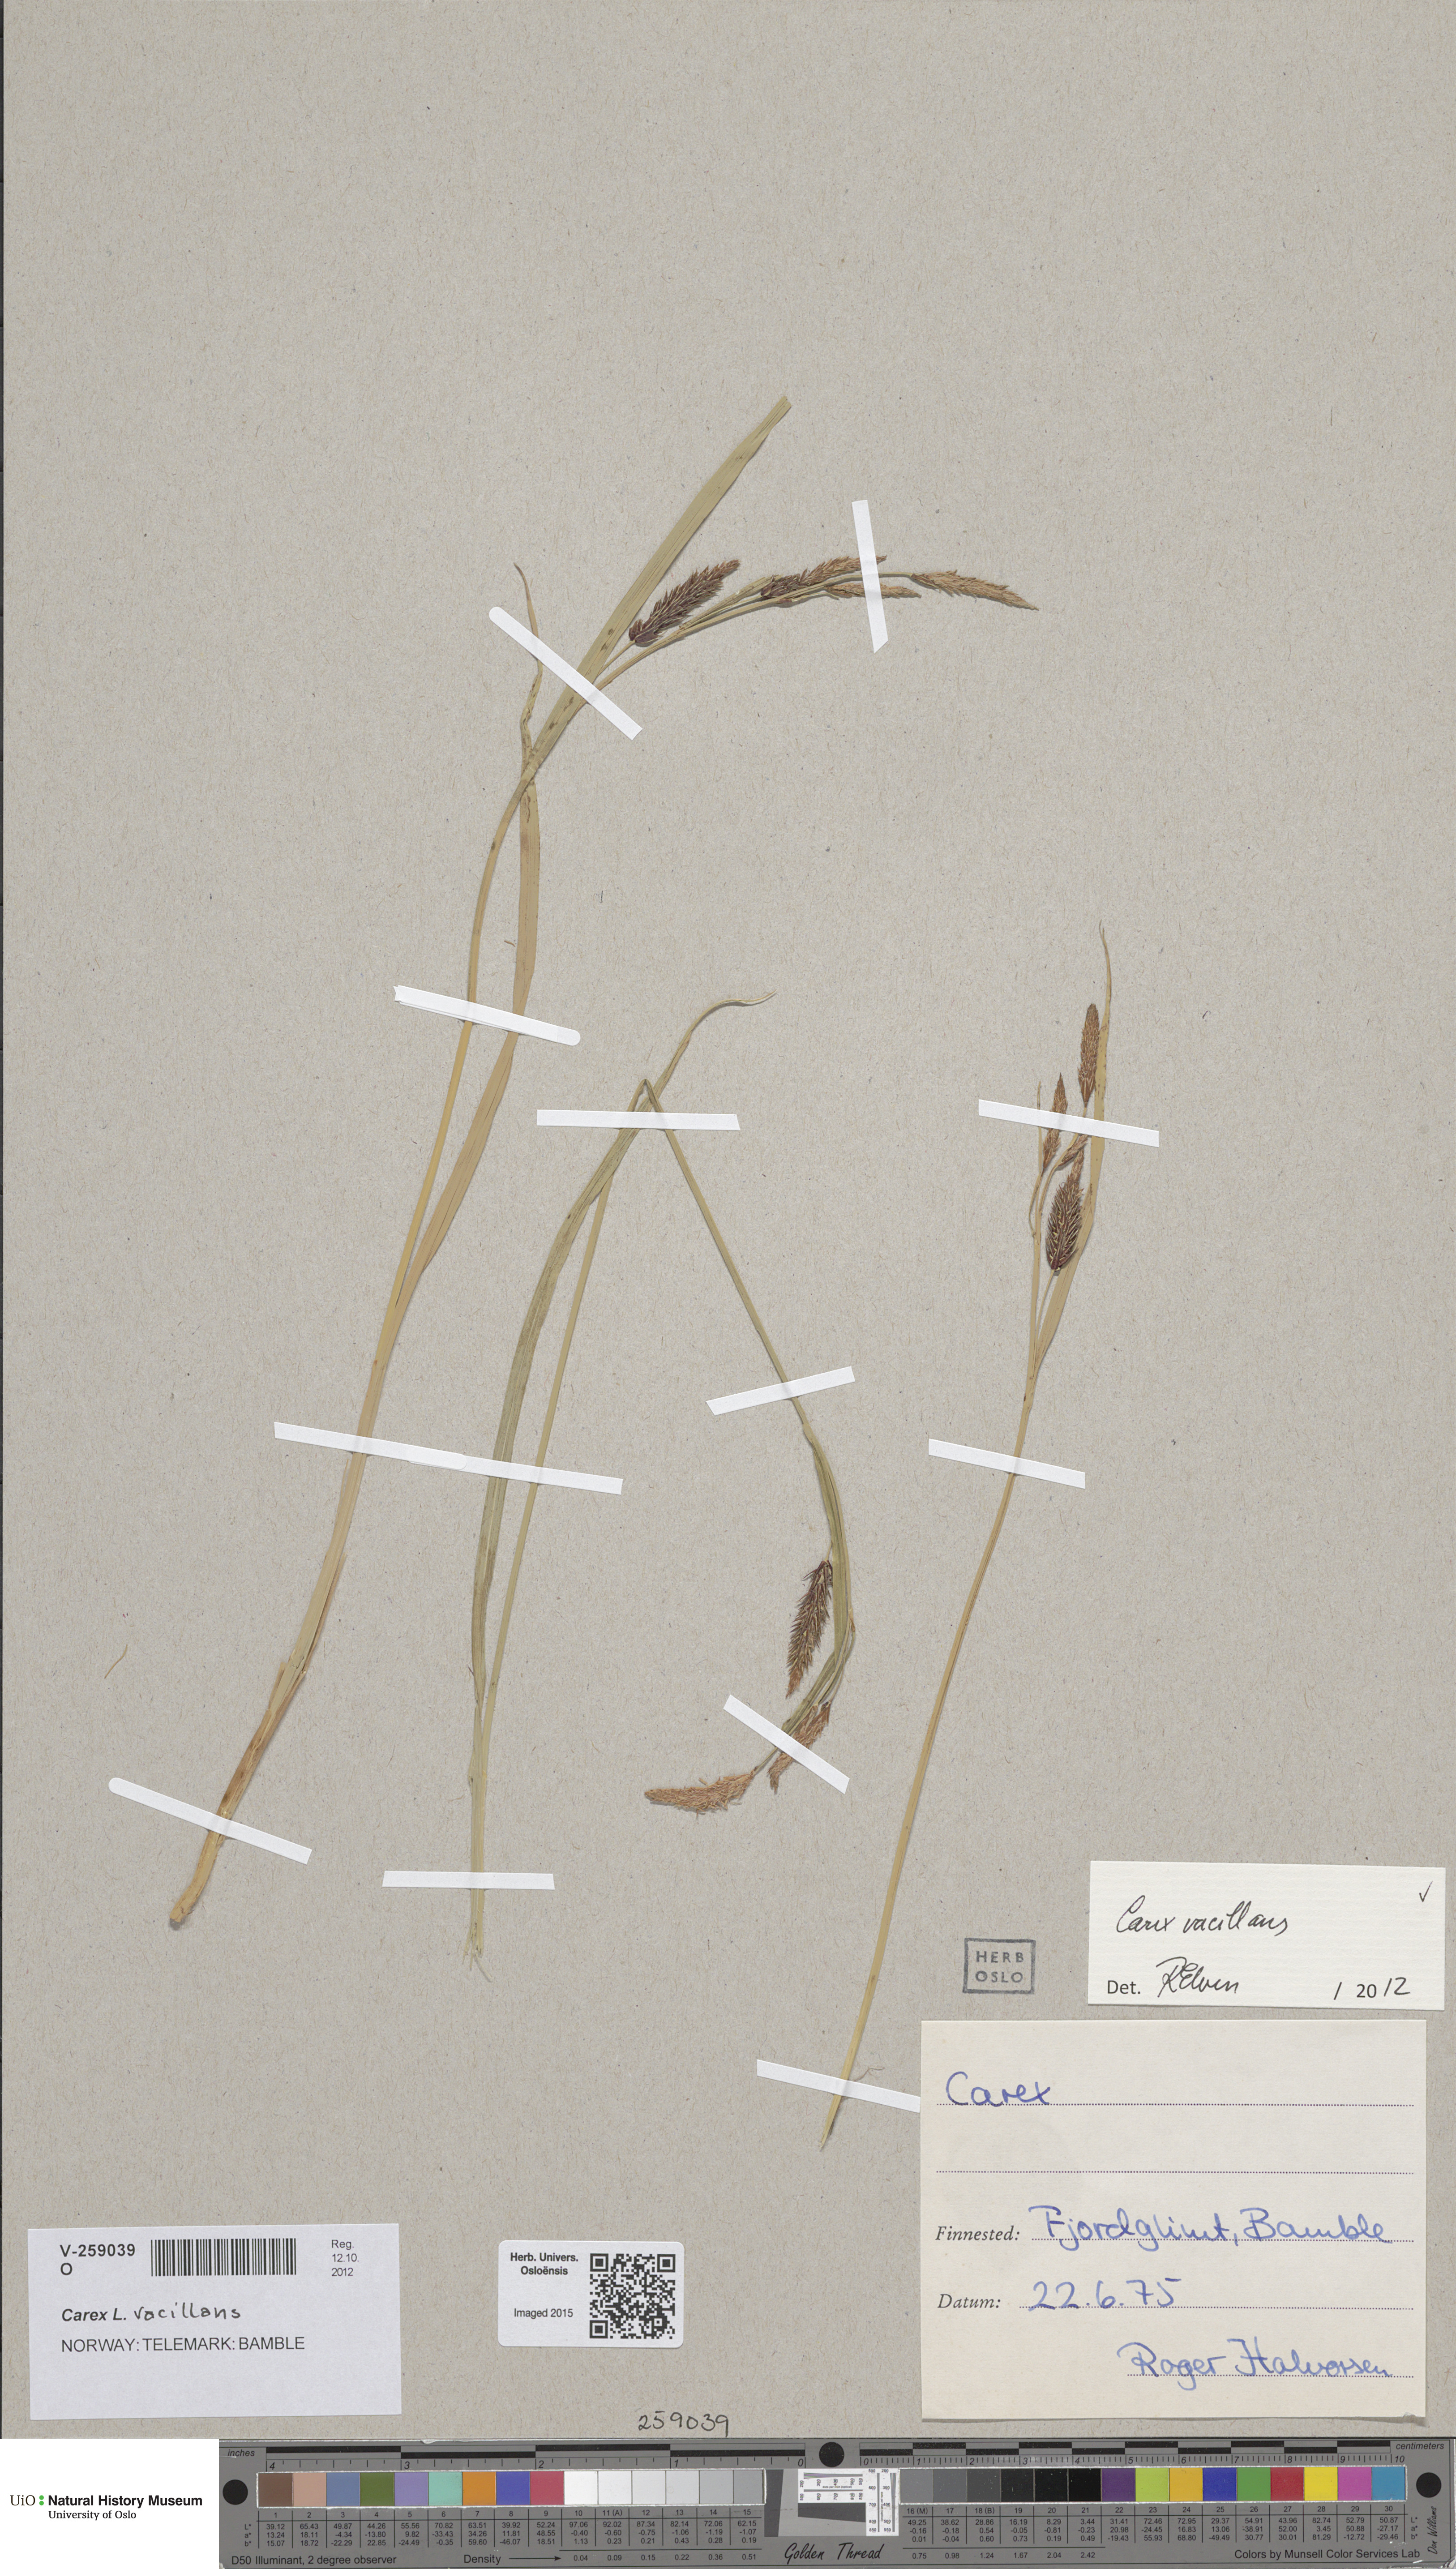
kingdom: Plantae
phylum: Tracheophyta
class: Liliopsida
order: Poales
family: Cyperaceae
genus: Carex
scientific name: Carex vacillans
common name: Sedge
